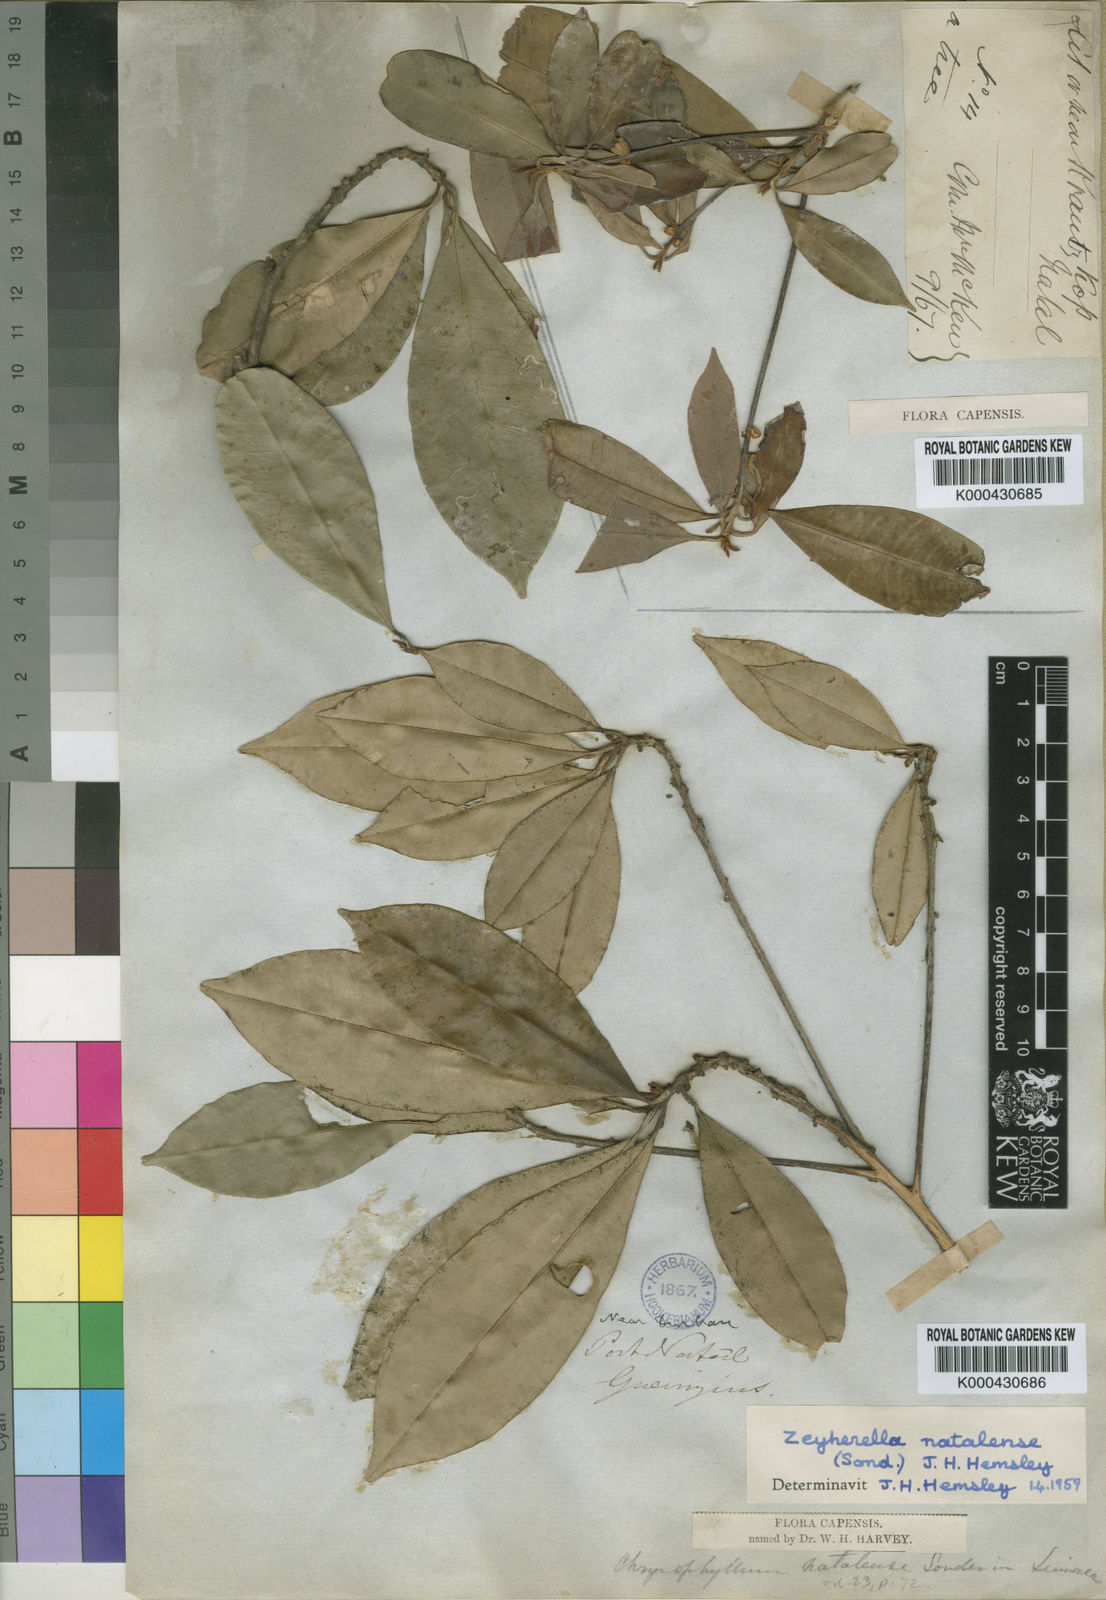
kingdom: Plantae
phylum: Tracheophyta
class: Magnoliopsida
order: Ericales
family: Sapotaceae
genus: Englerophytum
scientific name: Englerophytum natalense
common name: Silver-leaved milkplum
